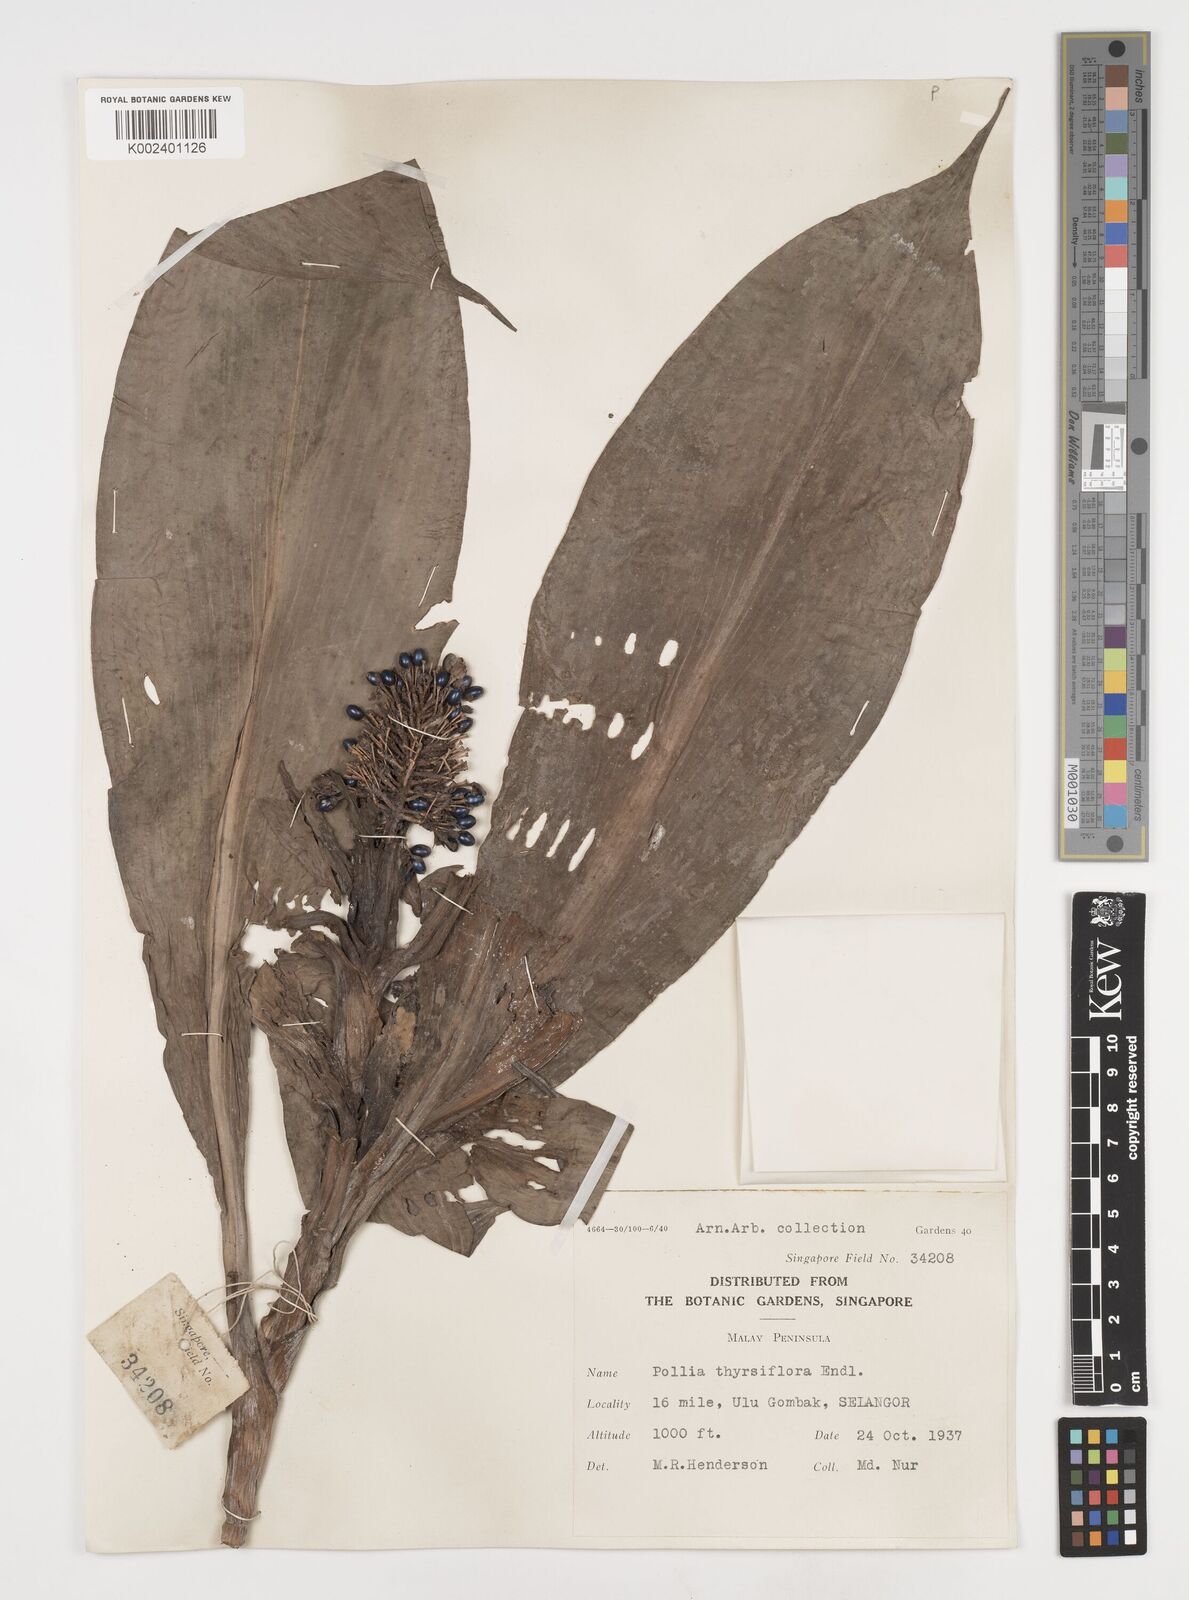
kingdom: Plantae
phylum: Tracheophyta
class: Liliopsida
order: Commelinales
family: Commelinaceae
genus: Pollia
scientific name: Pollia thyrsiflora
